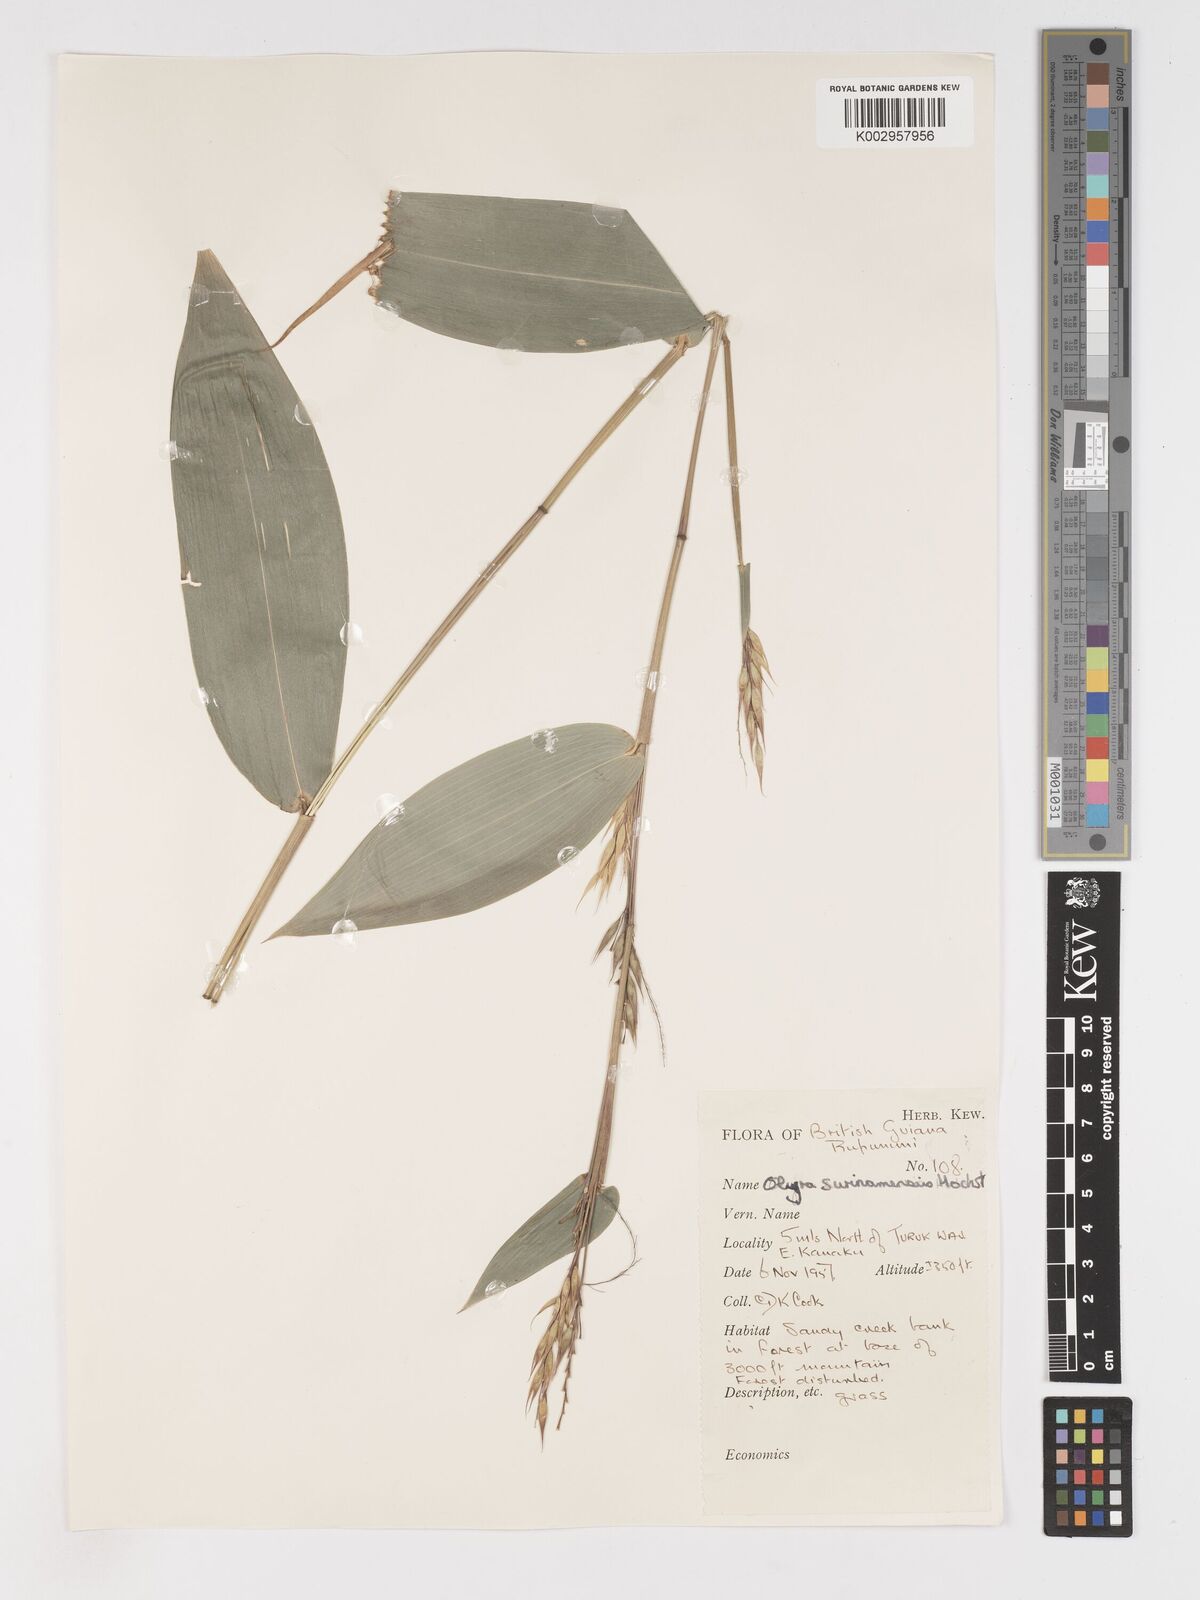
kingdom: Plantae
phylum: Tracheophyta
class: Liliopsida
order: Poales
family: Poaceae
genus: Olyra
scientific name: Olyra longifolia
